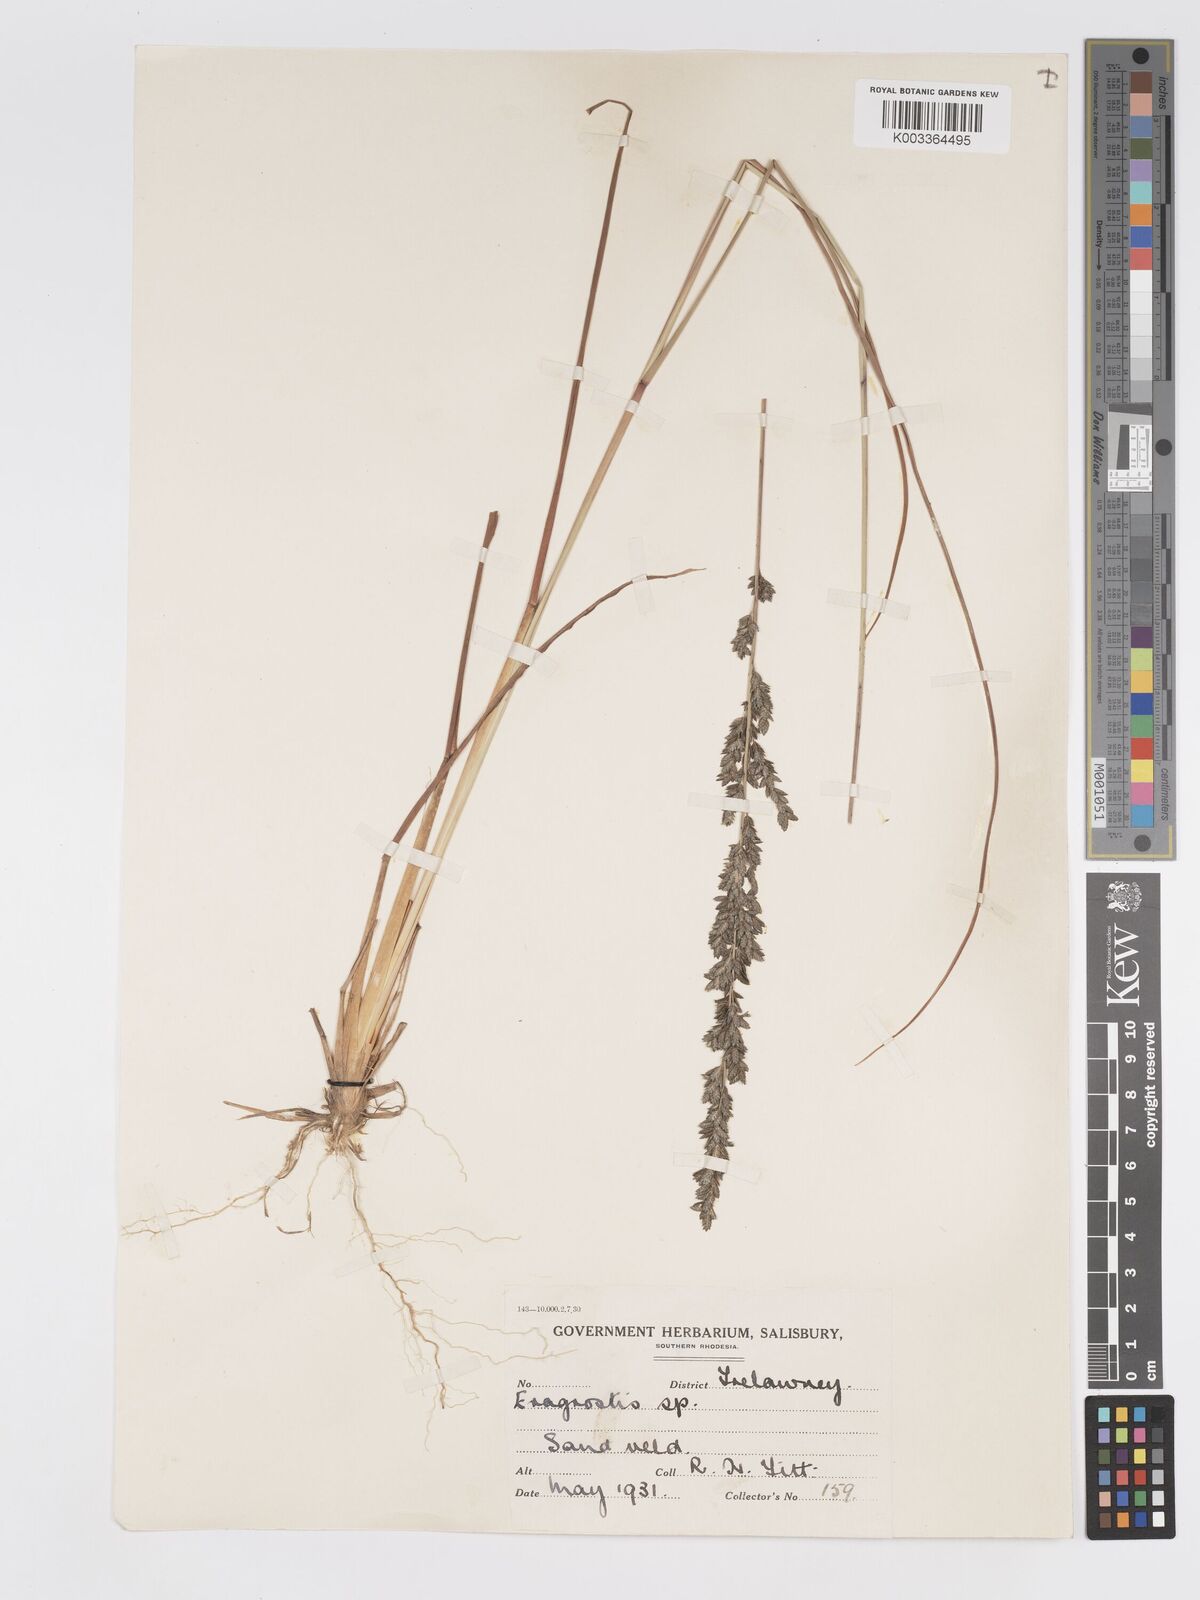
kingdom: Plantae
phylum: Tracheophyta
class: Liliopsida
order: Poales
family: Poaceae
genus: Eragrostis
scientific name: Eragrostis sclerantha
